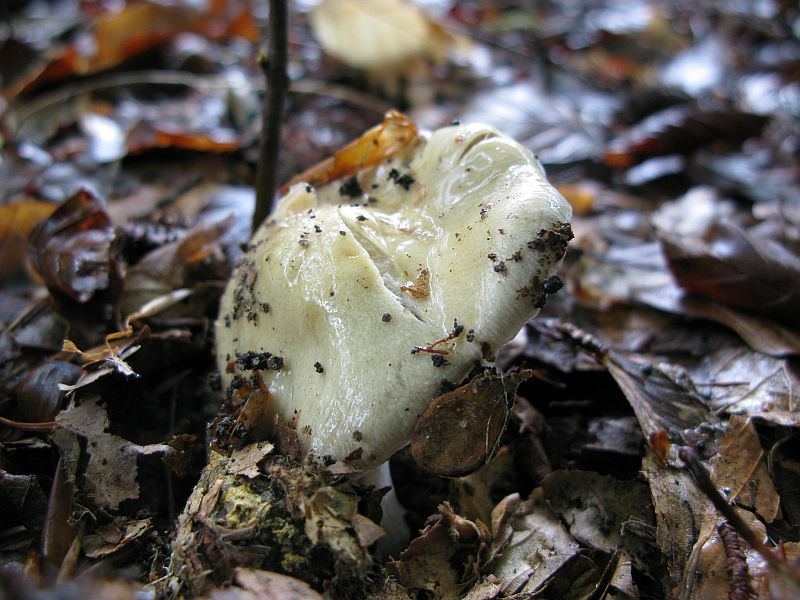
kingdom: Fungi
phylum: Basidiomycota
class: Agaricomycetes
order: Agaricales
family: Cortinariaceae
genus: Cortinarius
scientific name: Cortinarius elatior
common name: høj slørhat
